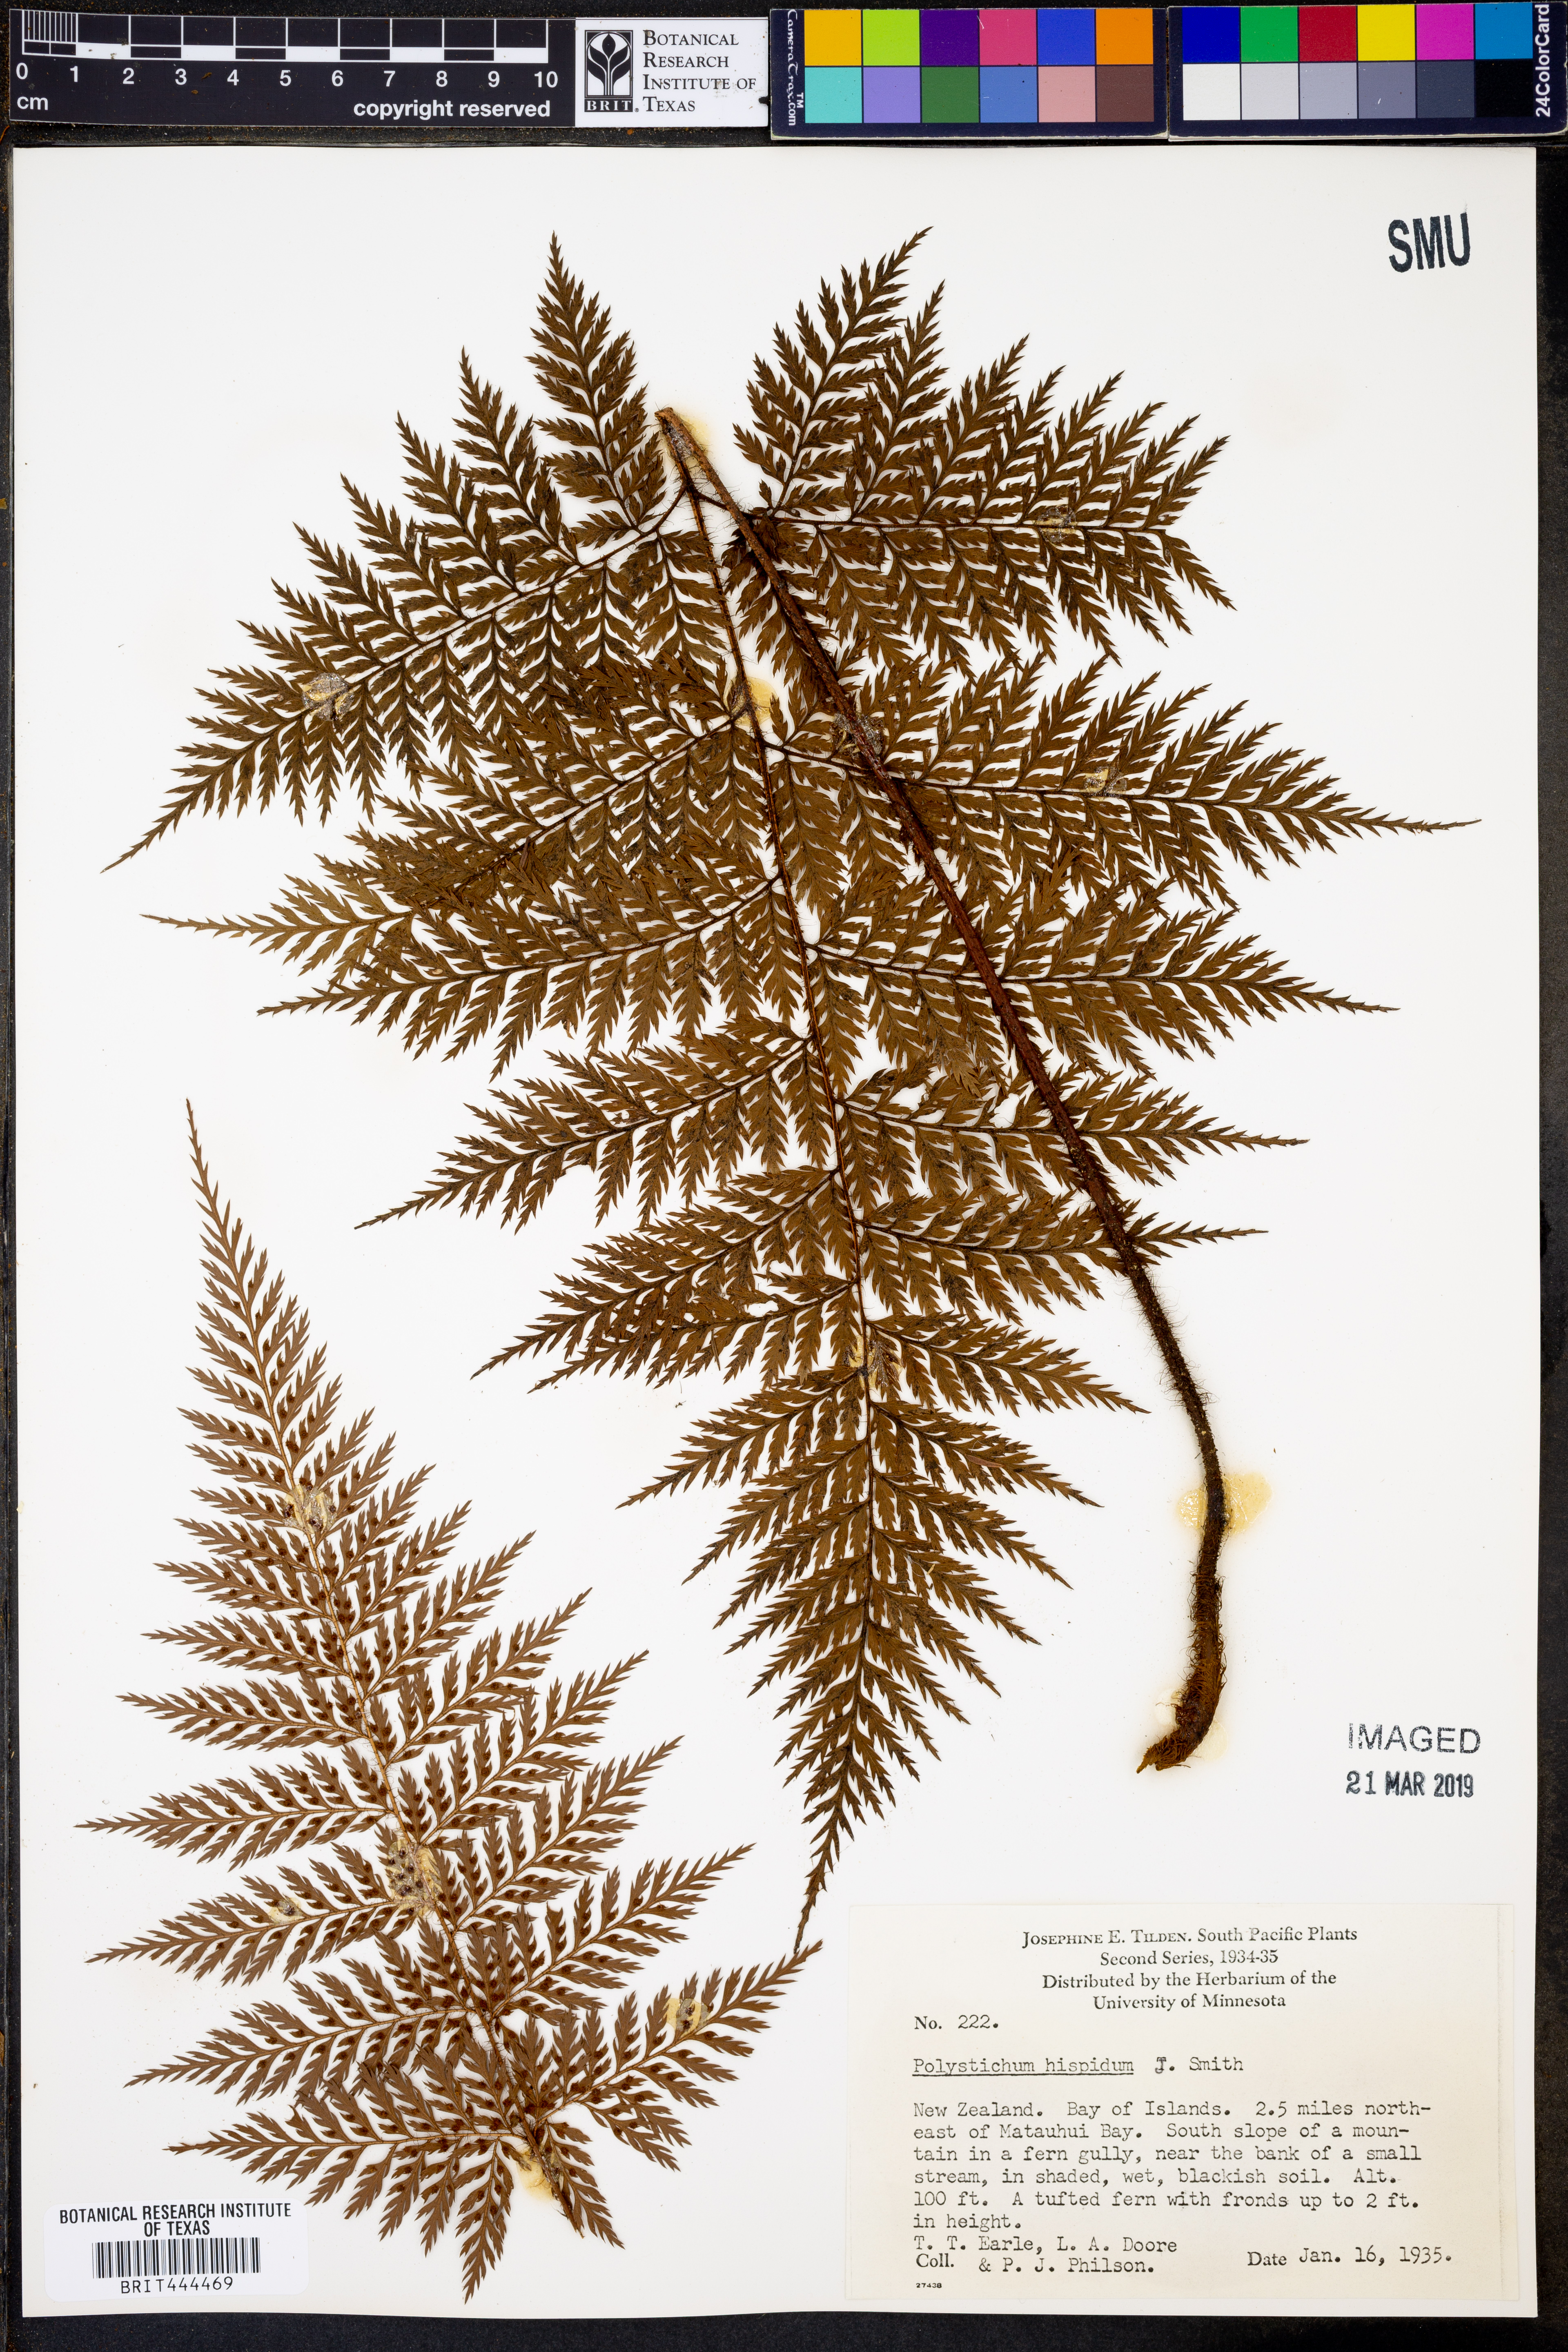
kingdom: Plantae
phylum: Tracheophyta
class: Polypodiopsida
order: Polypodiales
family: Dryopteridaceae
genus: Lastreopsis
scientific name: Lastreopsis hispida
